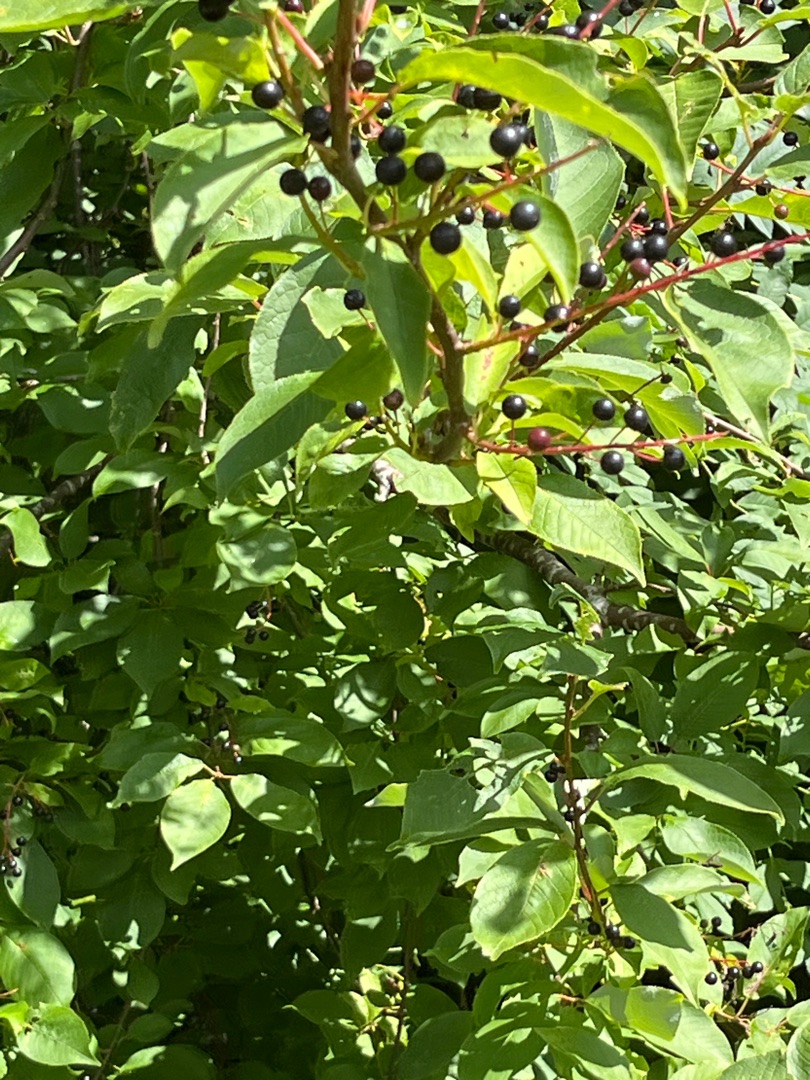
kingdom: Plantae
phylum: Tracheophyta
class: Magnoliopsida
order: Rosales
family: Rosaceae
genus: Prunus
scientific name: Prunus padus
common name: Almindelig hæg
